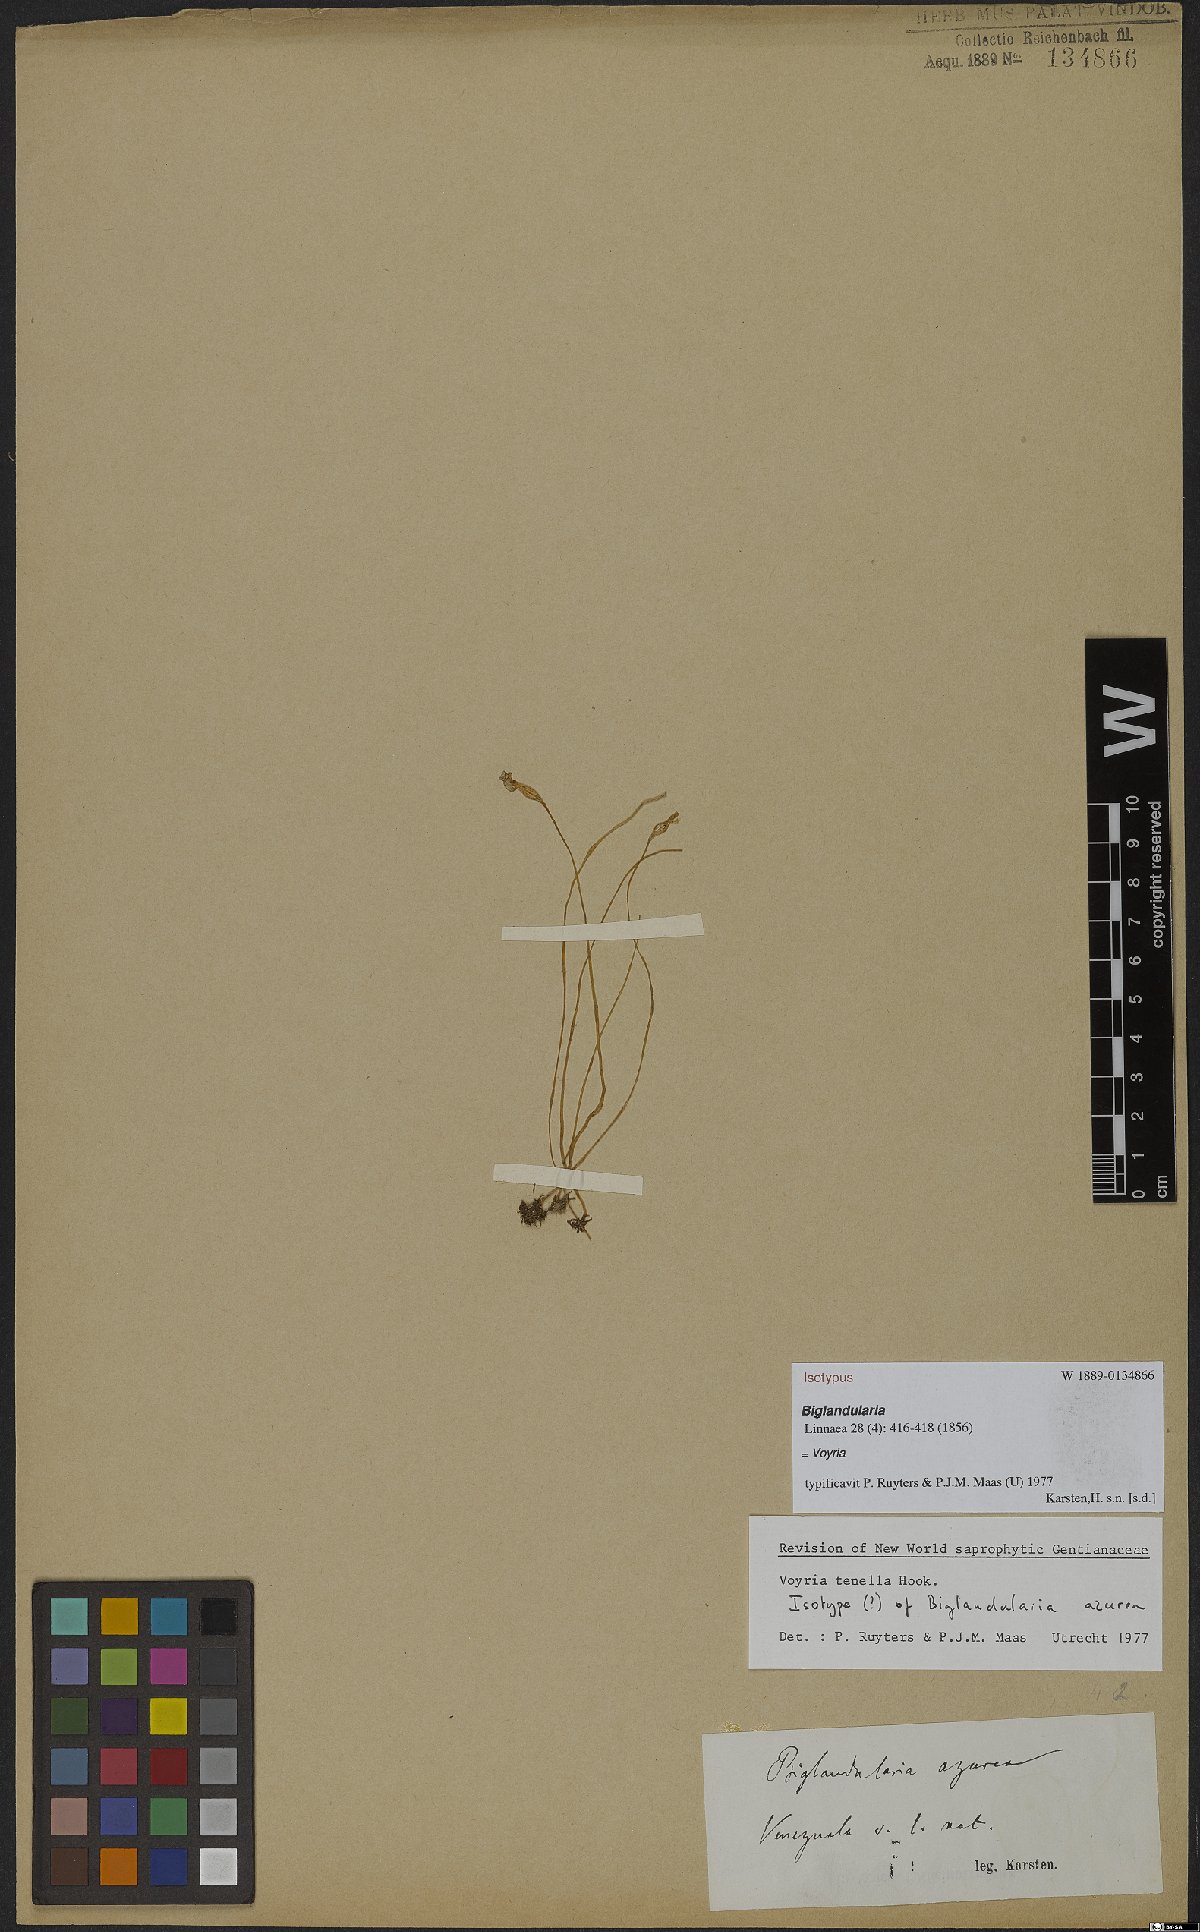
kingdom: Plantae
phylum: Tracheophyta
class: Magnoliopsida
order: Gentianales
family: Gentianaceae
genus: Voyria
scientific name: Voyria tenella
